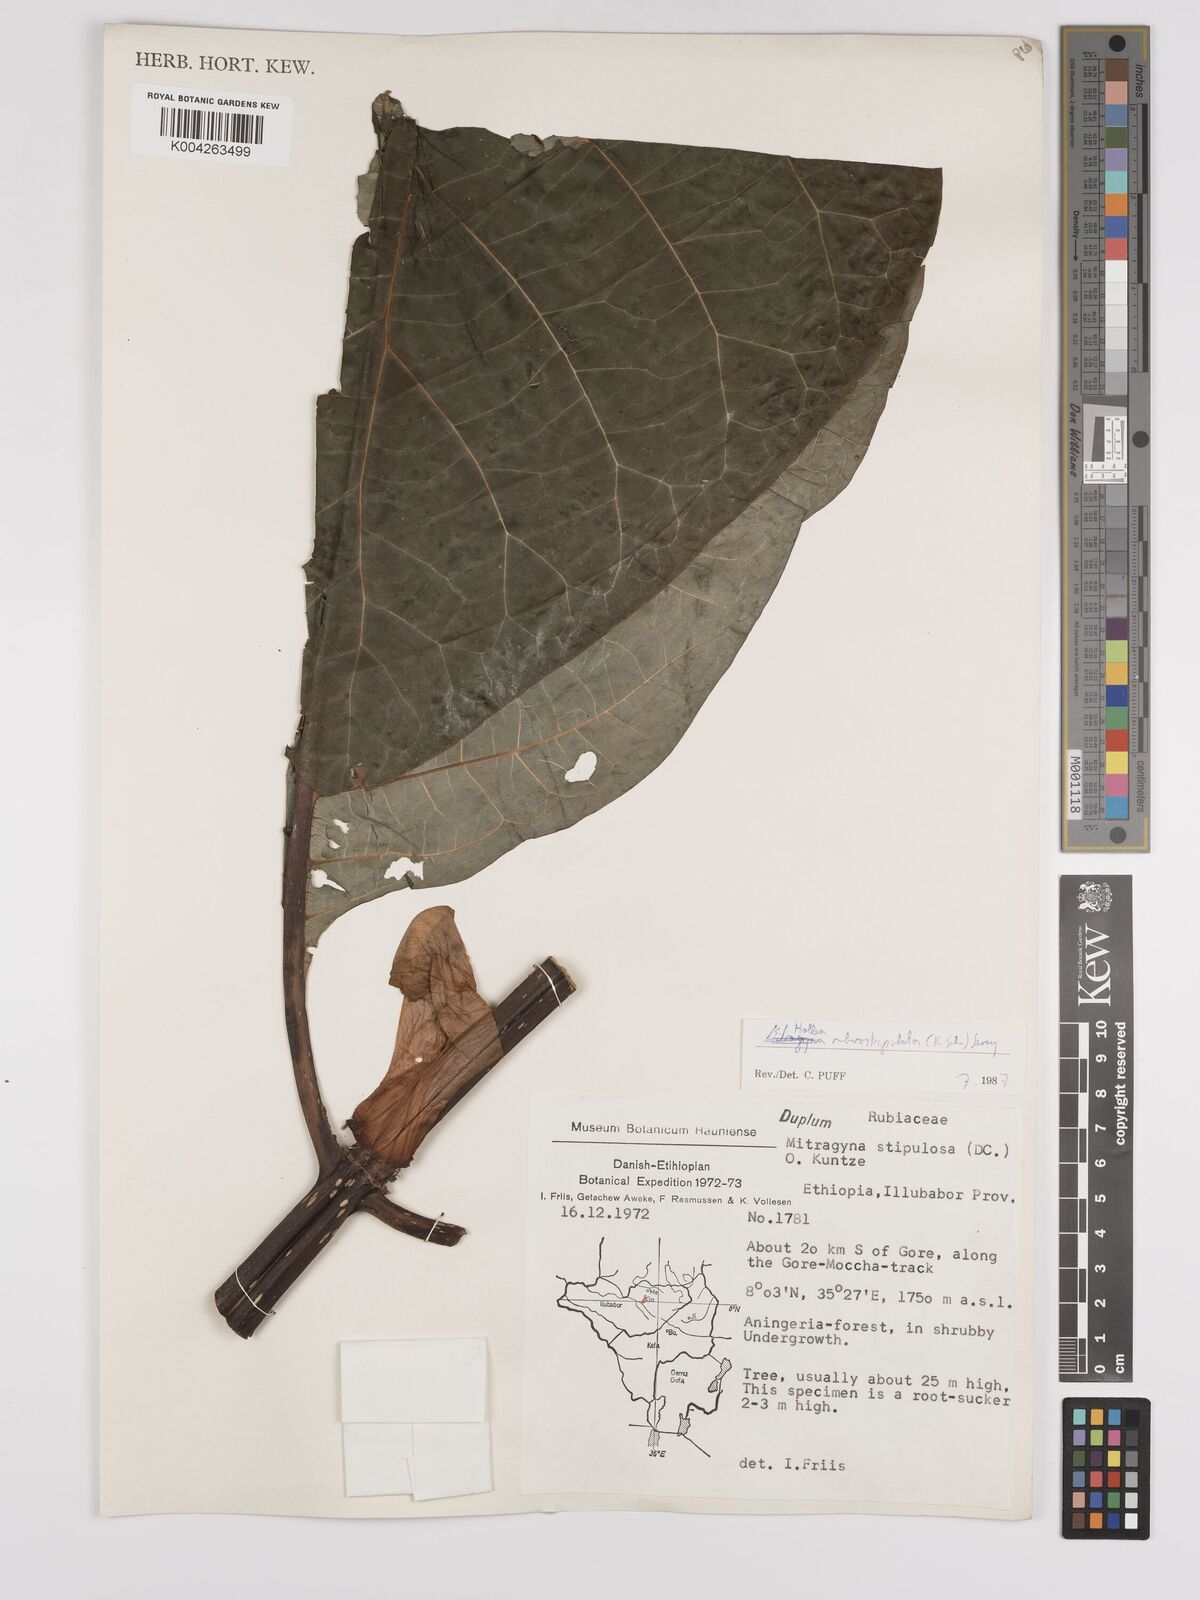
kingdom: Plantae
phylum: Tracheophyta
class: Magnoliopsida
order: Gentianales
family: Rubiaceae
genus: Mitragyna
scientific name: Mitragyna rubrostipulata
